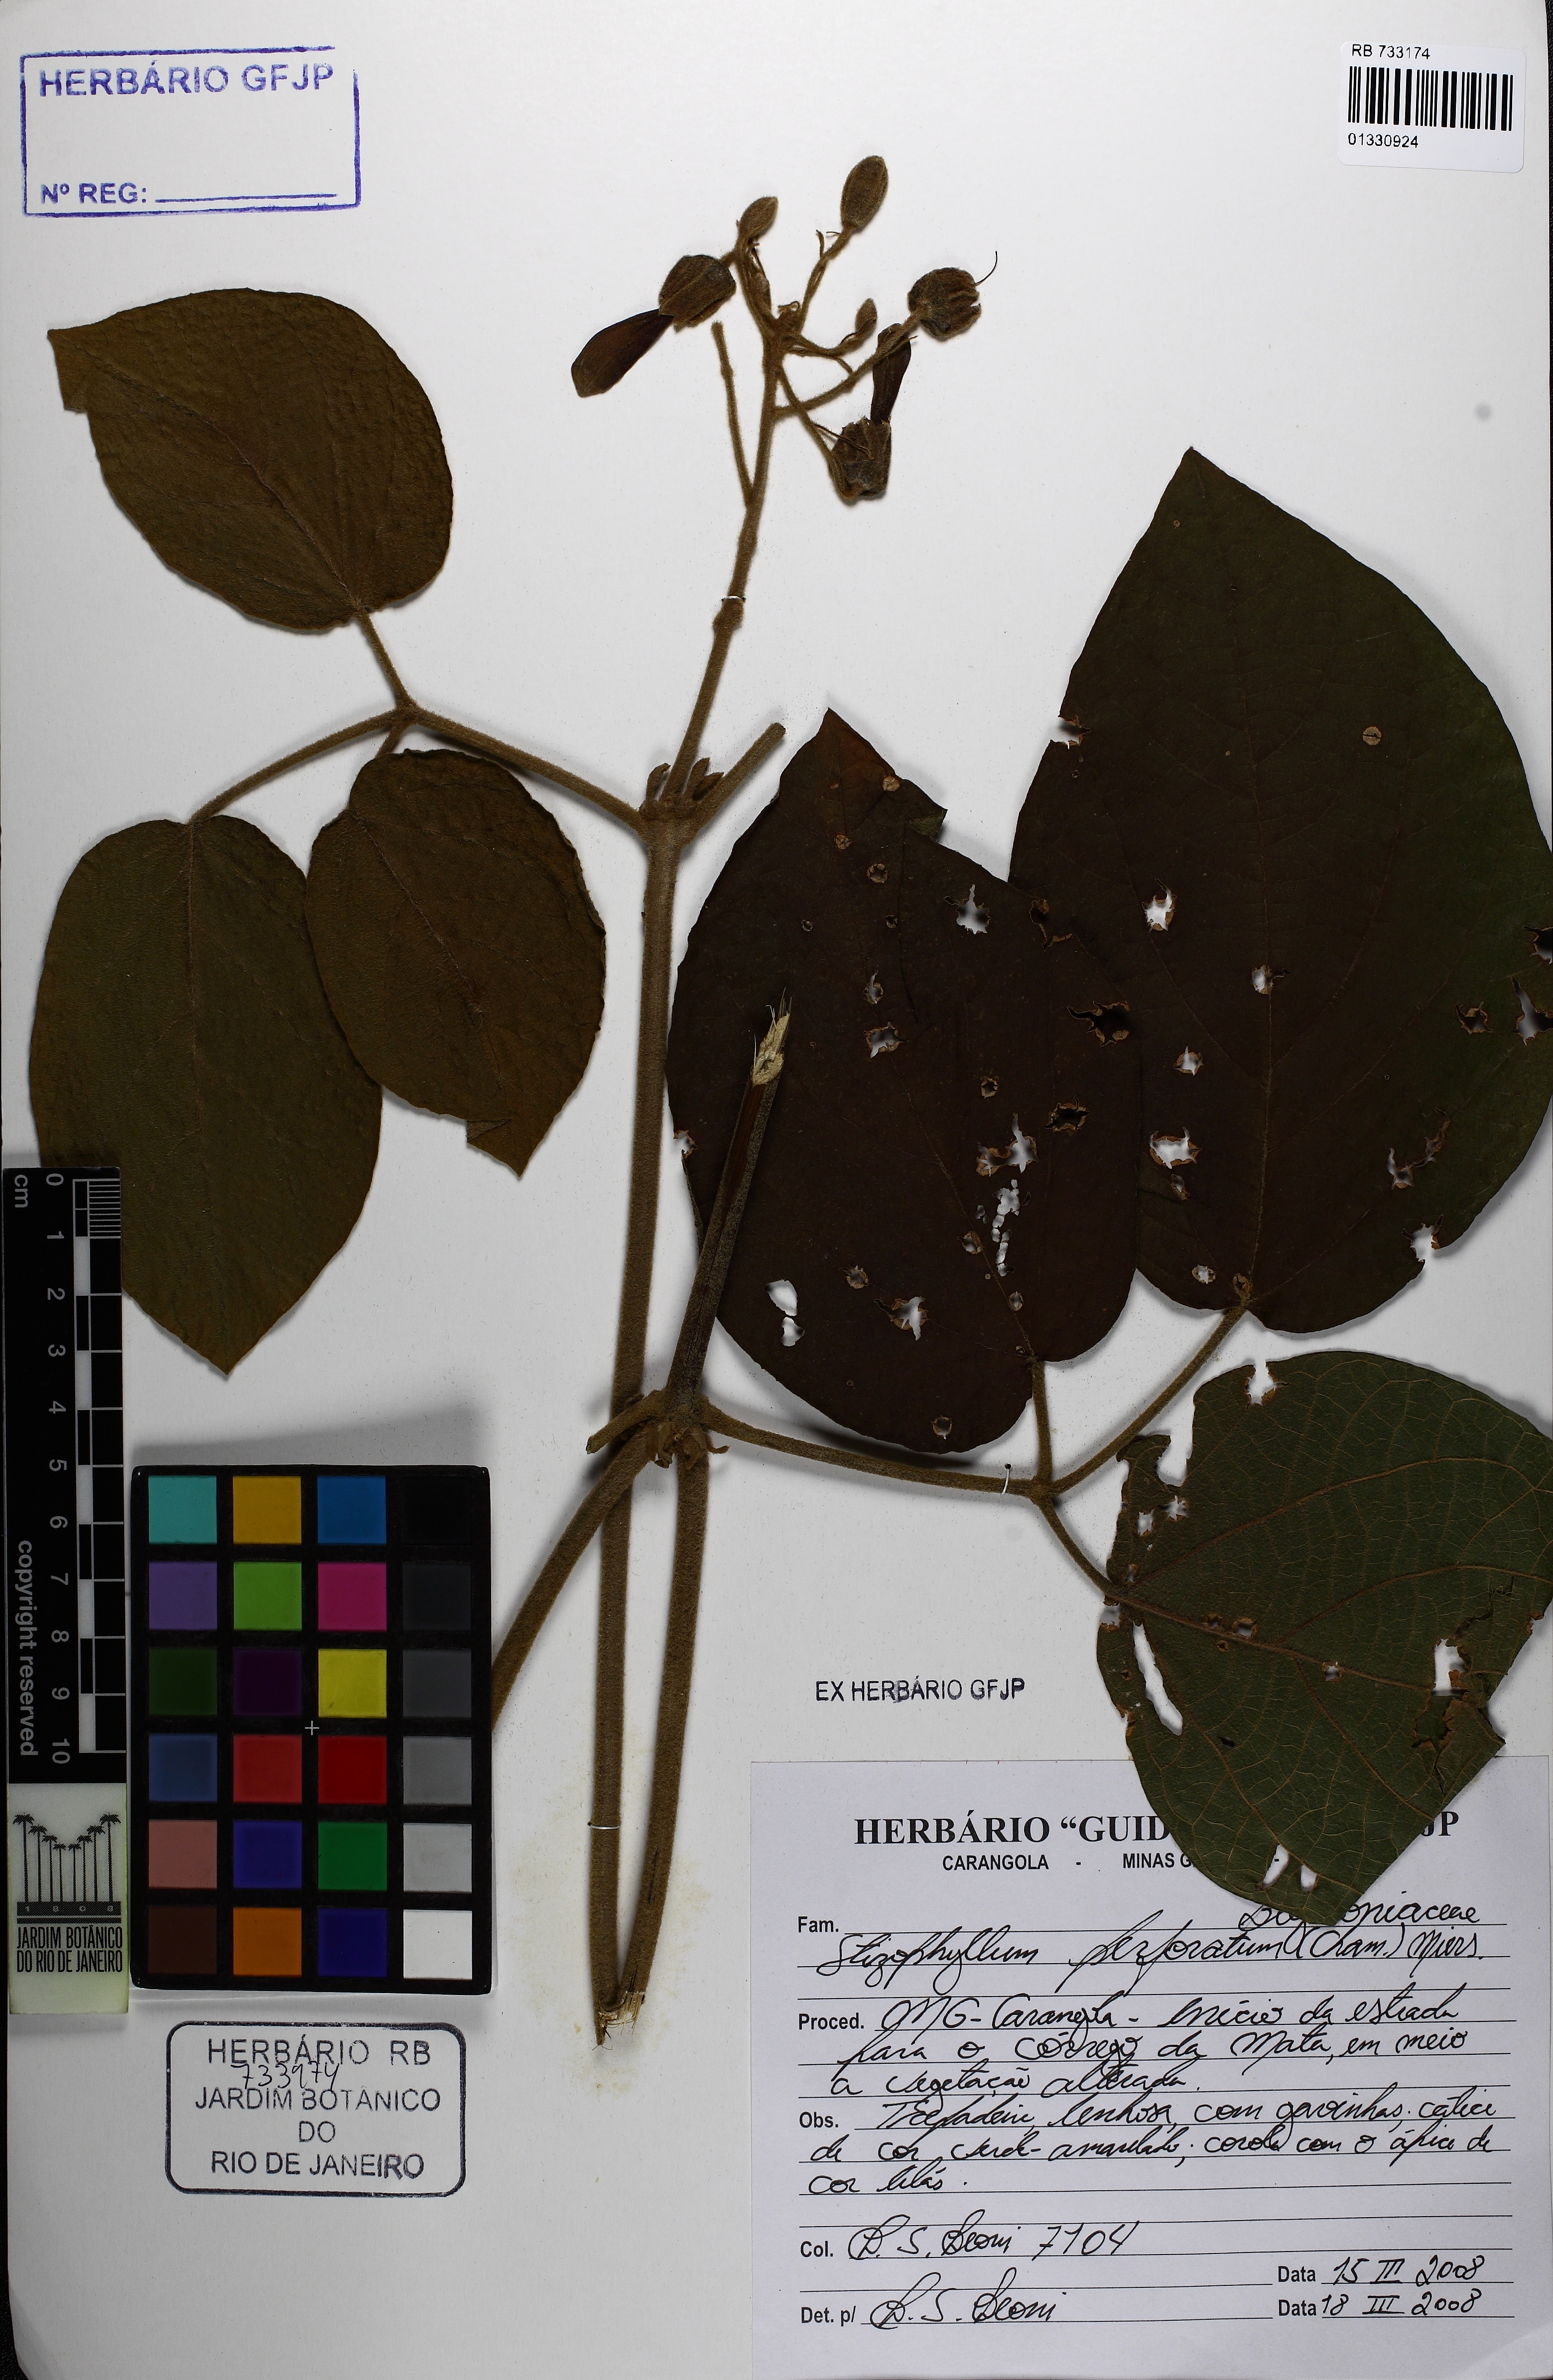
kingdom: Plantae
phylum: Tracheophyta
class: Magnoliopsida
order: Lamiales
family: Bignoniaceae
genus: Stizophyllum
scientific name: Stizophyllum perforatum
